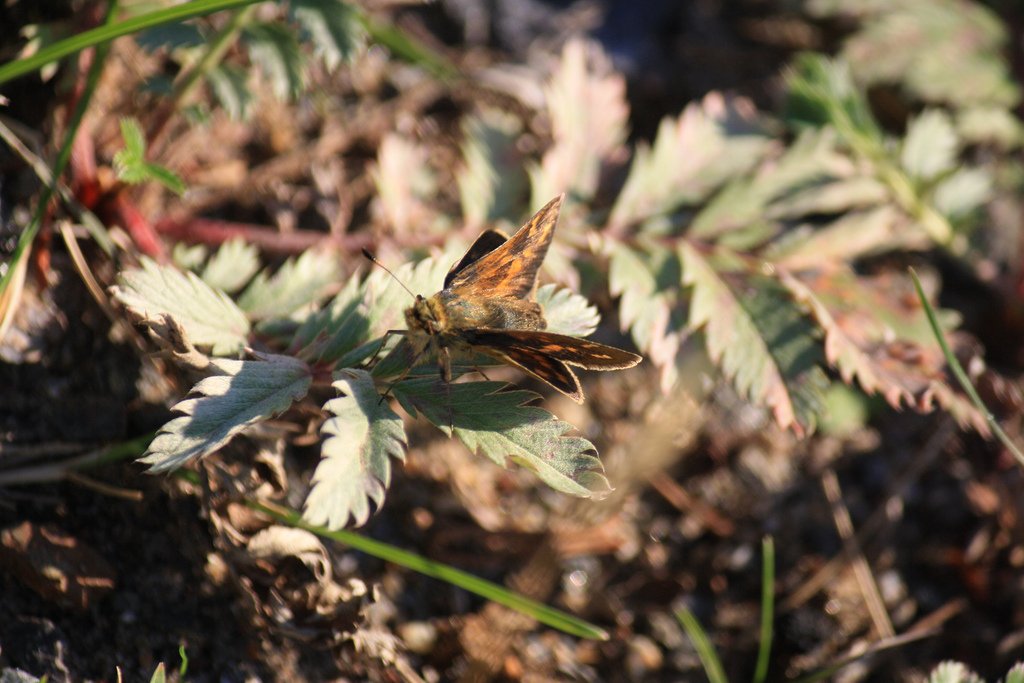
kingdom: Animalia
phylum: Arthropoda
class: Insecta
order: Lepidoptera
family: Hesperiidae
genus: Hesperia
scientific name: Hesperia comma
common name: Common Branded Skipper
